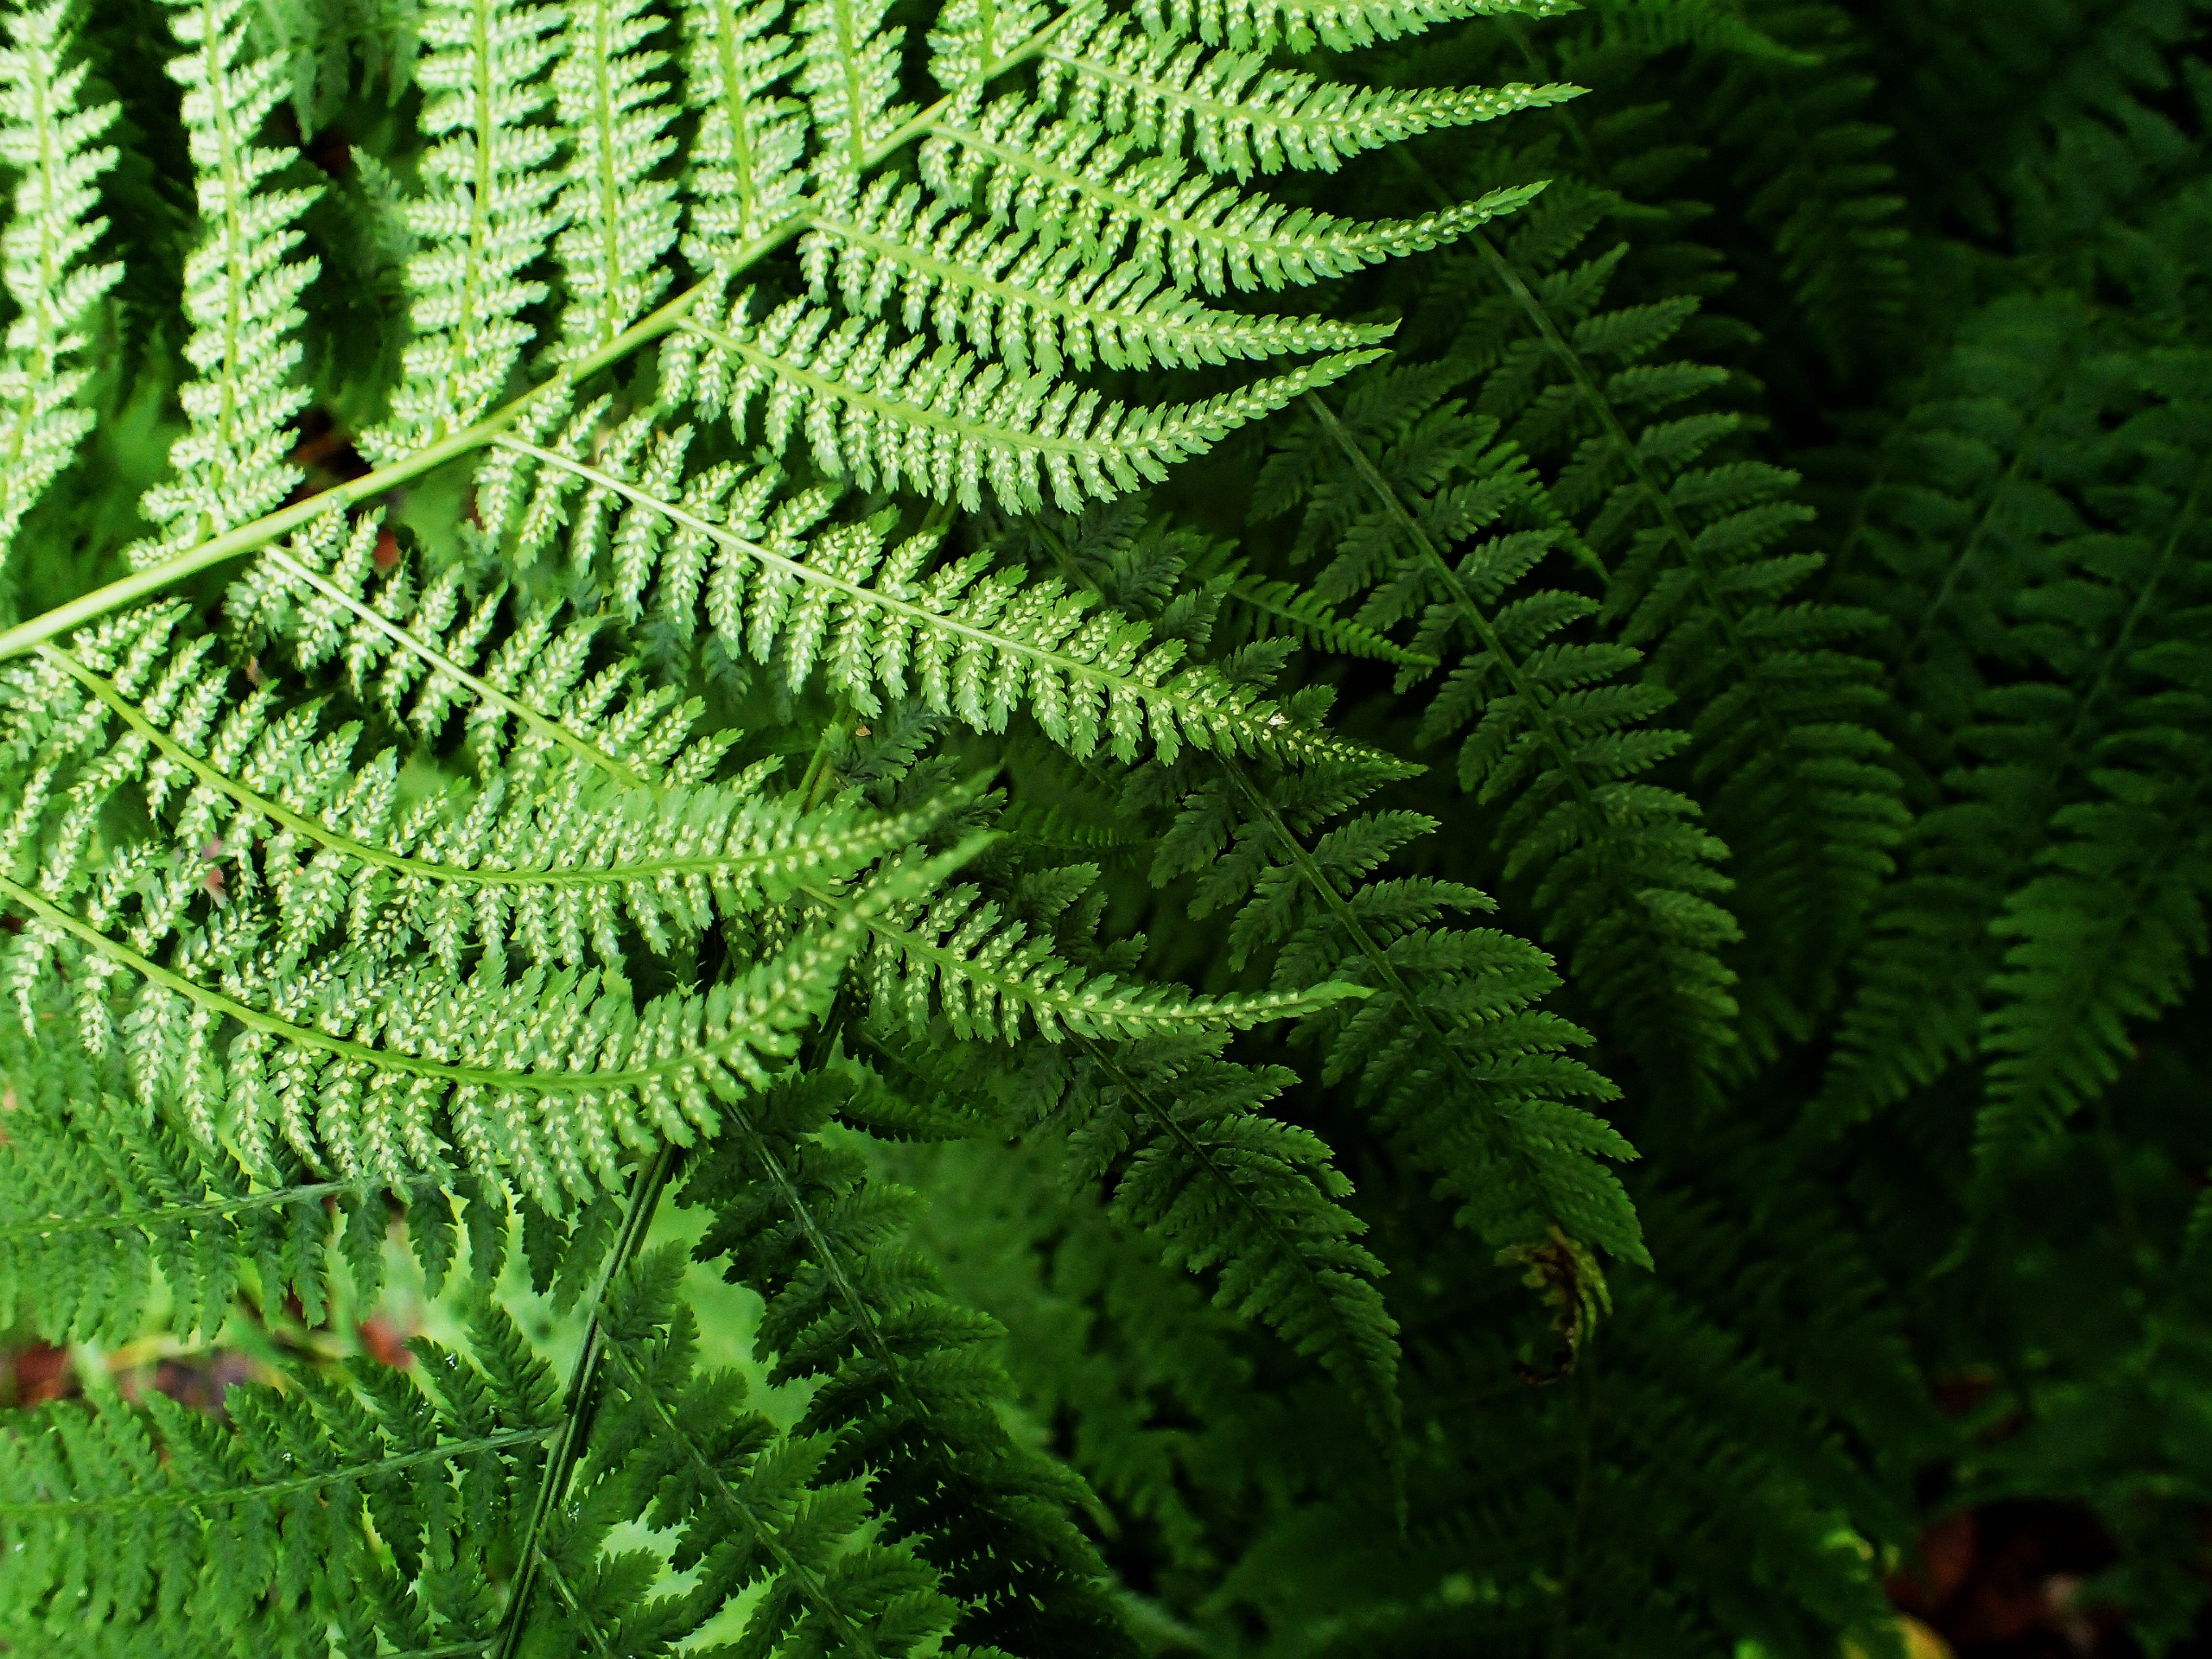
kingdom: Plantae
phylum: Tracheophyta
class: Polypodiopsida
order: Polypodiales
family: Athyriaceae
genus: Athyrium
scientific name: Athyrium filix-femina
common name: Fjerbregne
